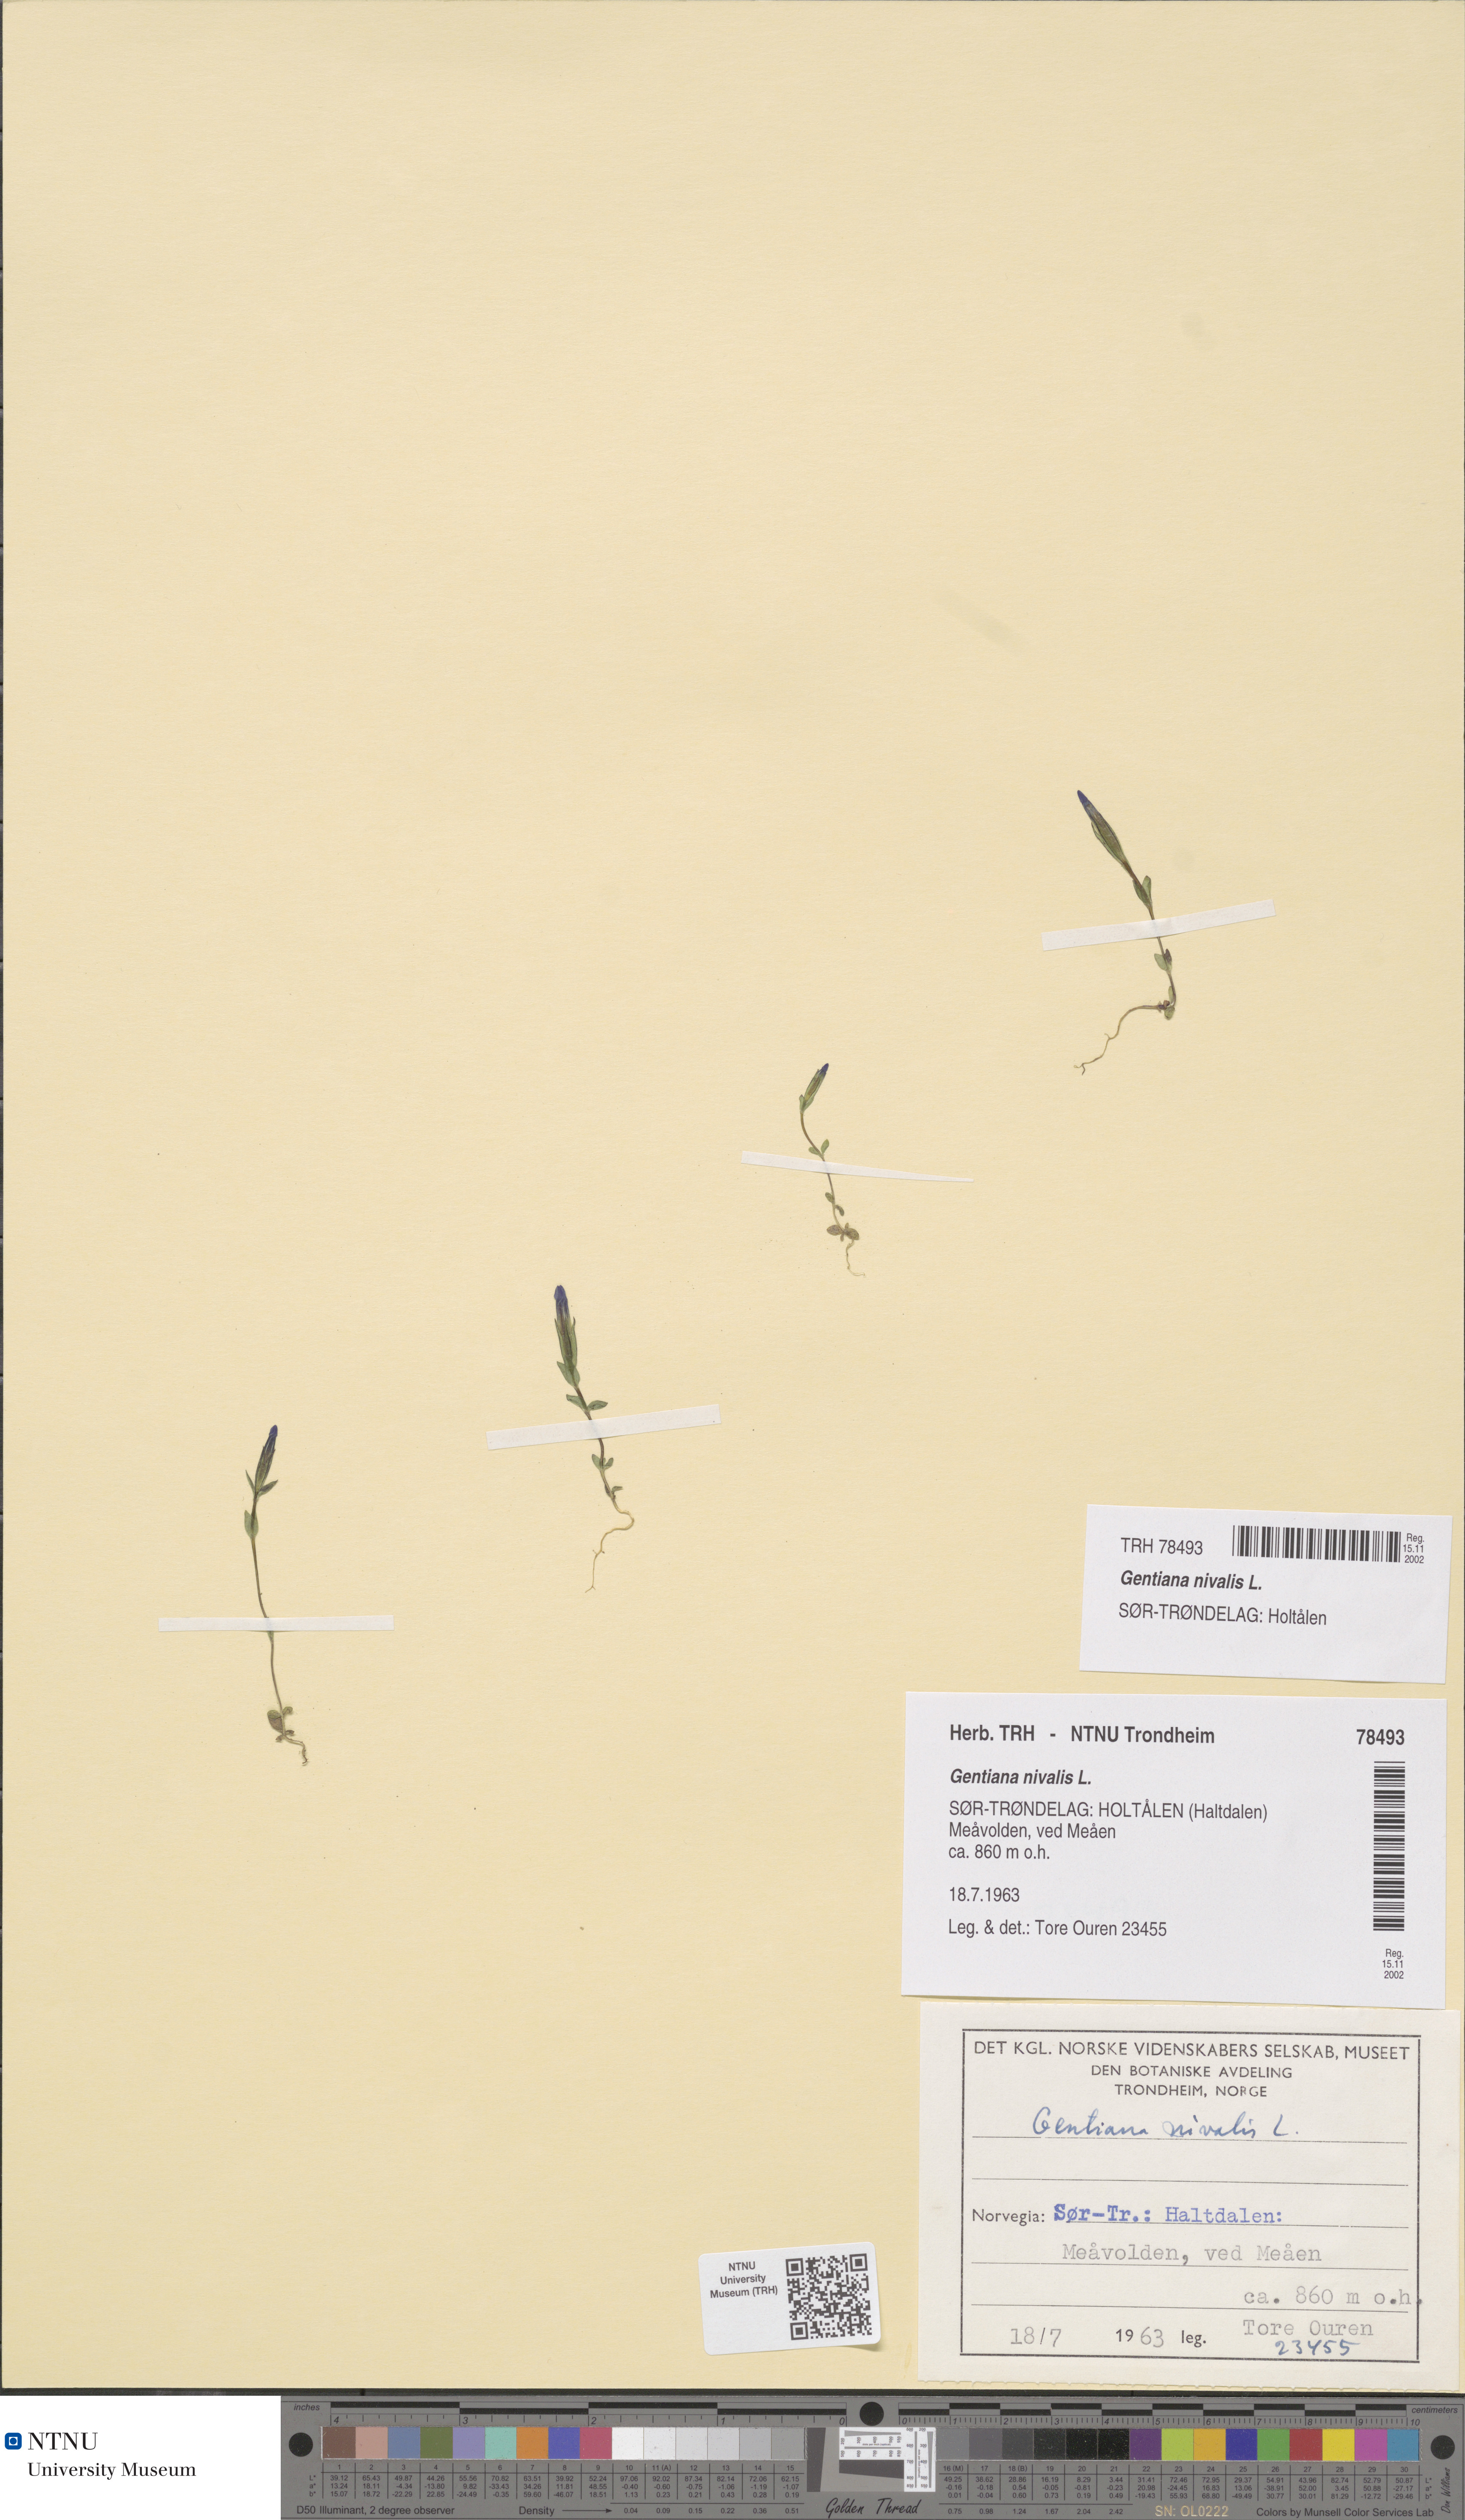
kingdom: Plantae
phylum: Tracheophyta
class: Magnoliopsida
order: Gentianales
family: Gentianaceae
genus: Gentiana
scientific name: Gentiana nivalis
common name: Alpine gentian
